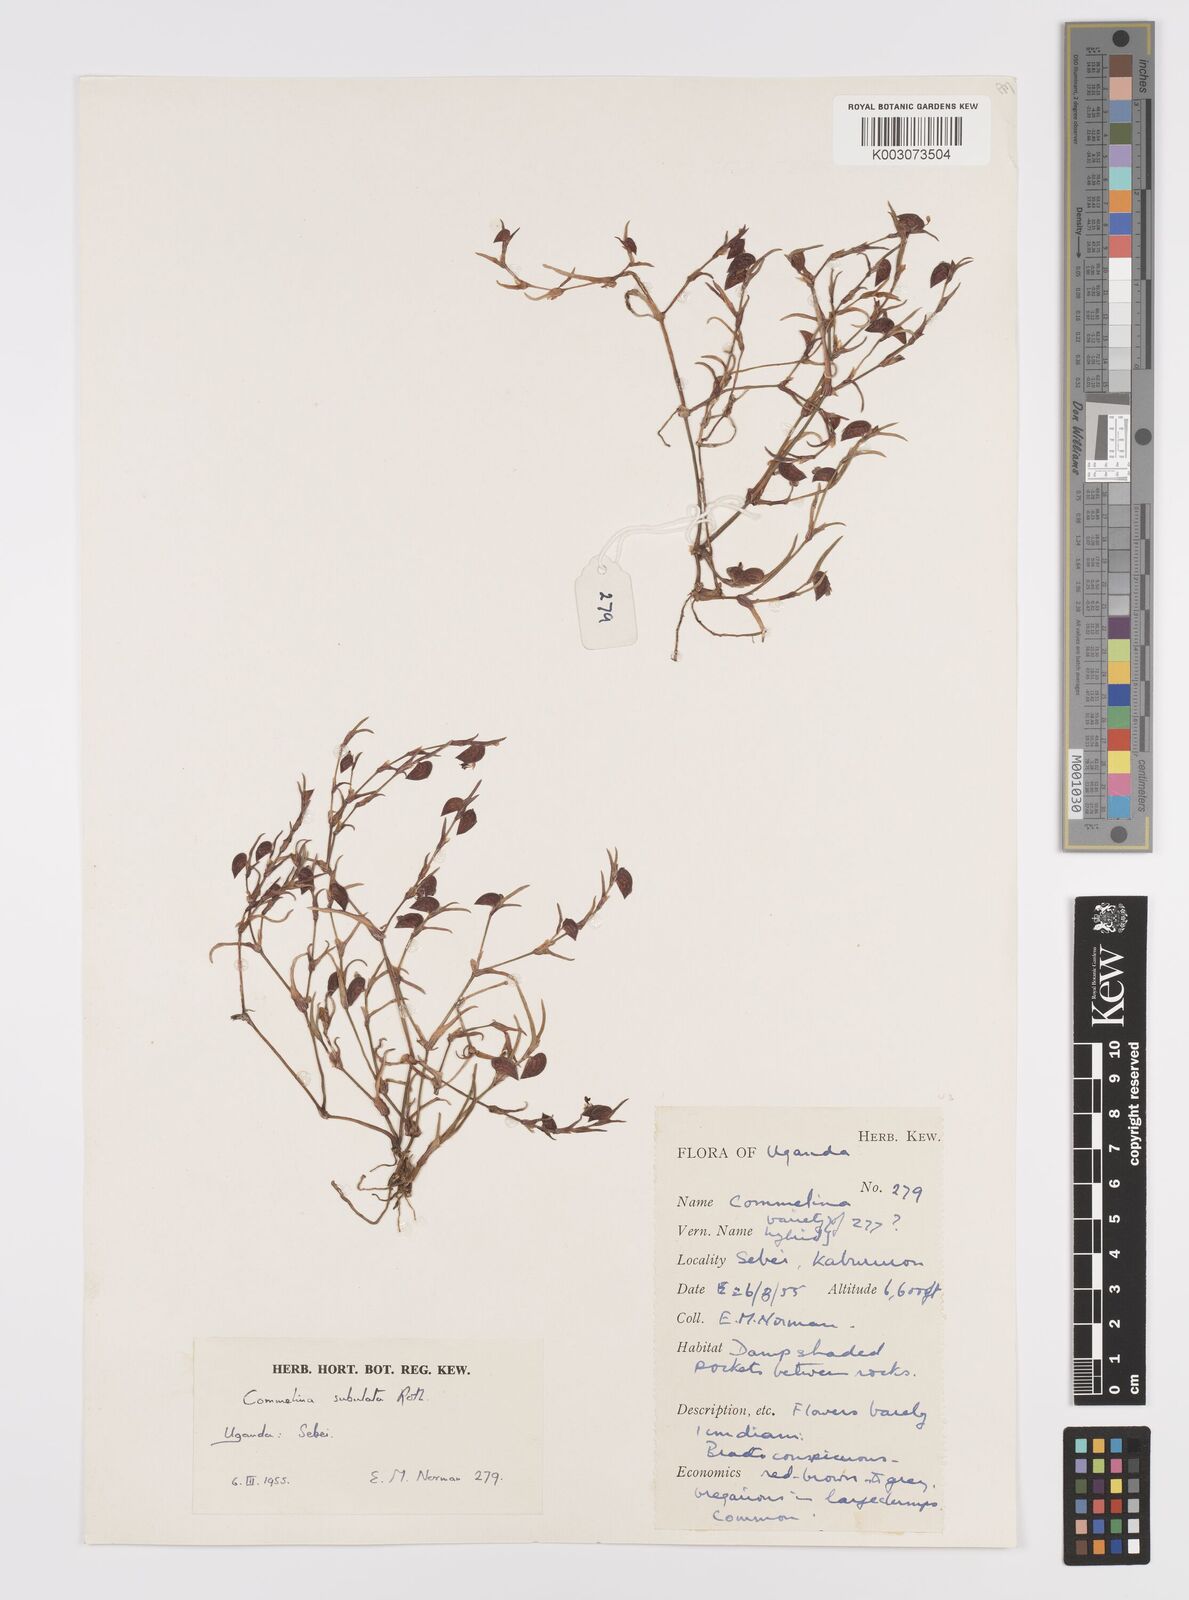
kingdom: Plantae
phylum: Tracheophyta
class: Liliopsida
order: Commelinales
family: Commelinaceae
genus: Commelina
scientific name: Commelina subulata
